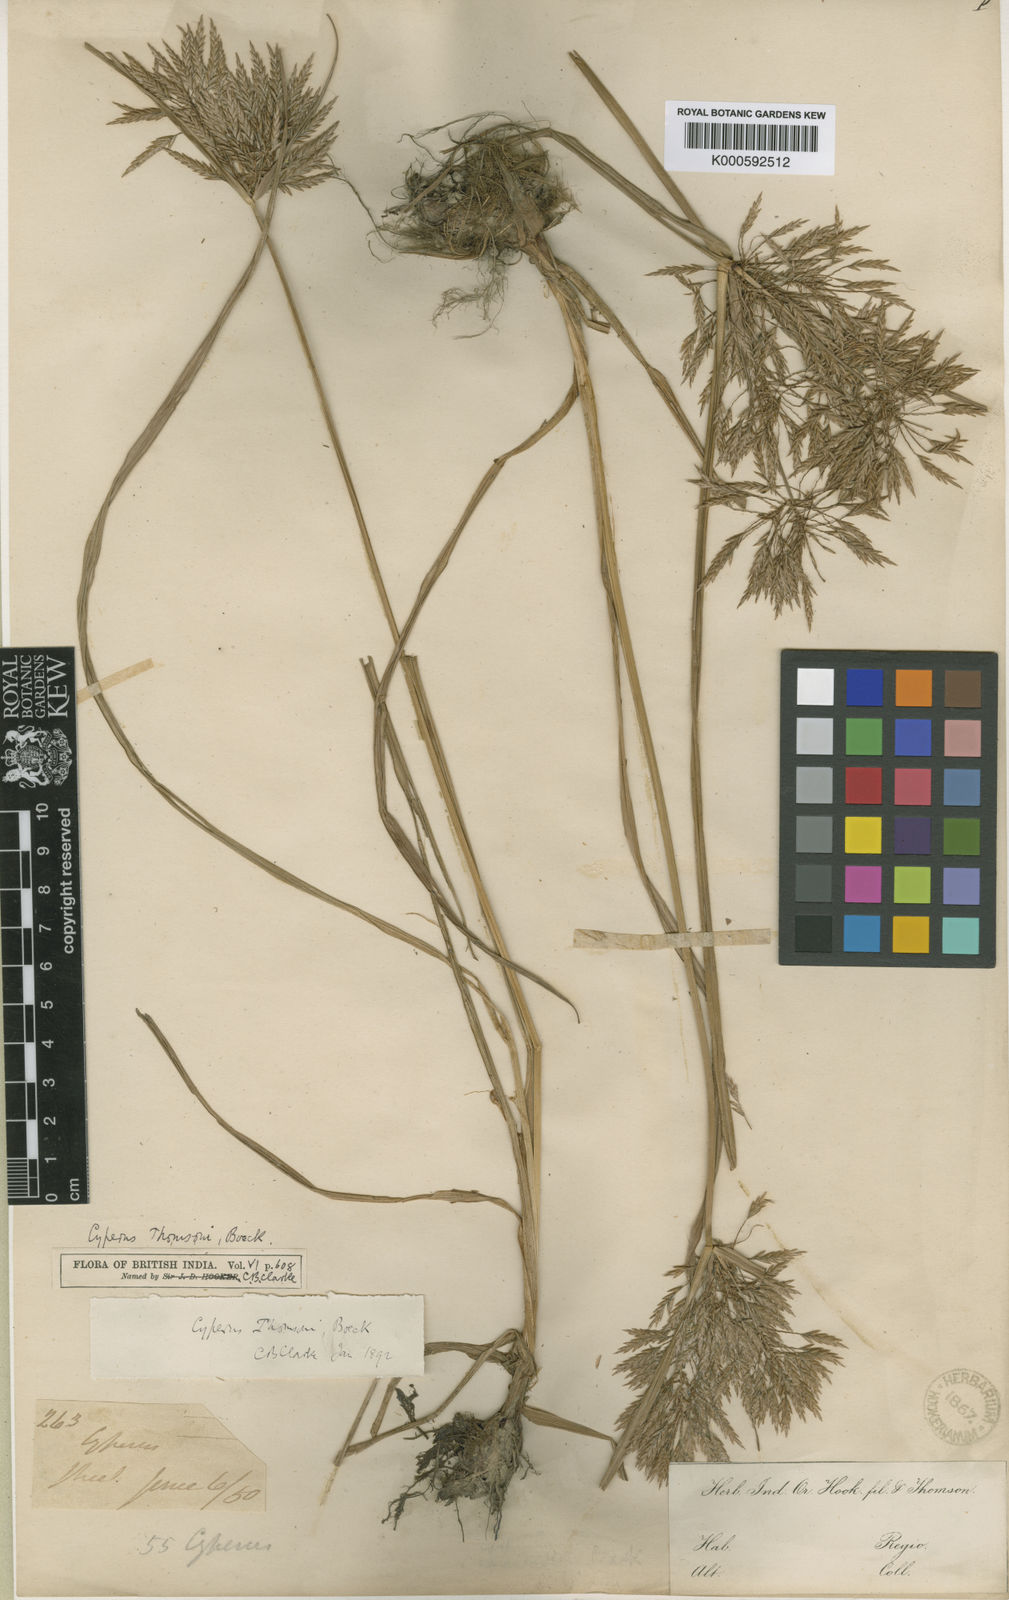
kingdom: Plantae
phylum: Tracheophyta
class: Liliopsida
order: Poales
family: Cyperaceae
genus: Cyperus
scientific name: Cyperus thomsonii
